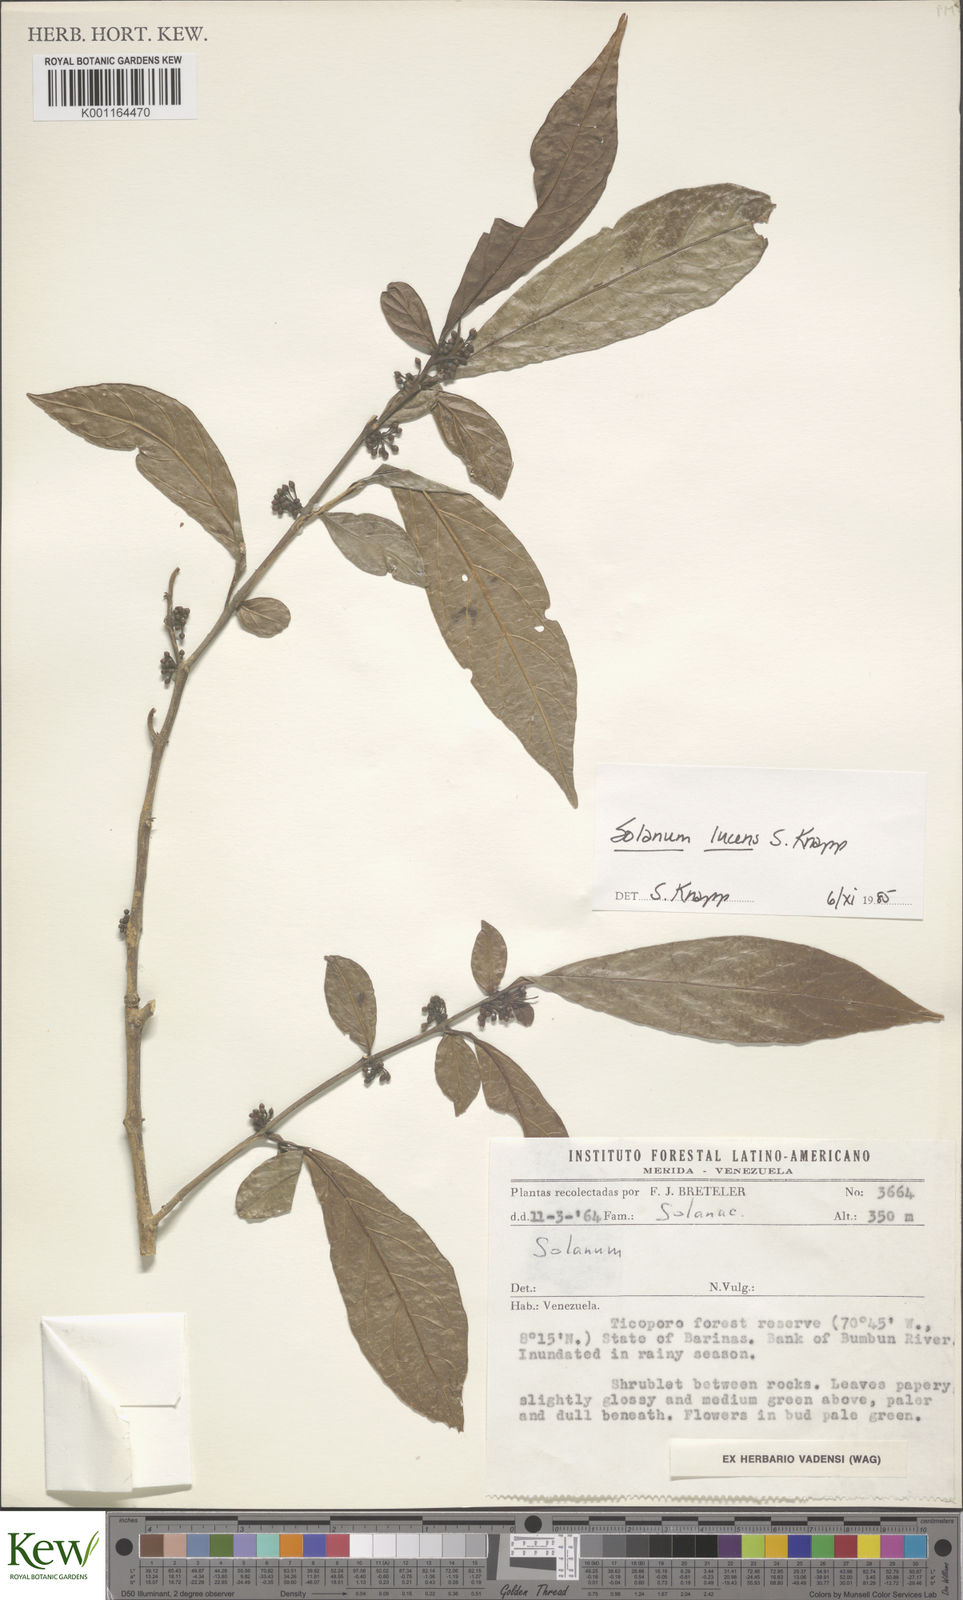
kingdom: Plantae
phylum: Tracheophyta
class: Magnoliopsida
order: Solanales
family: Solanaceae
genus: Solanum
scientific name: Solanum lucens
